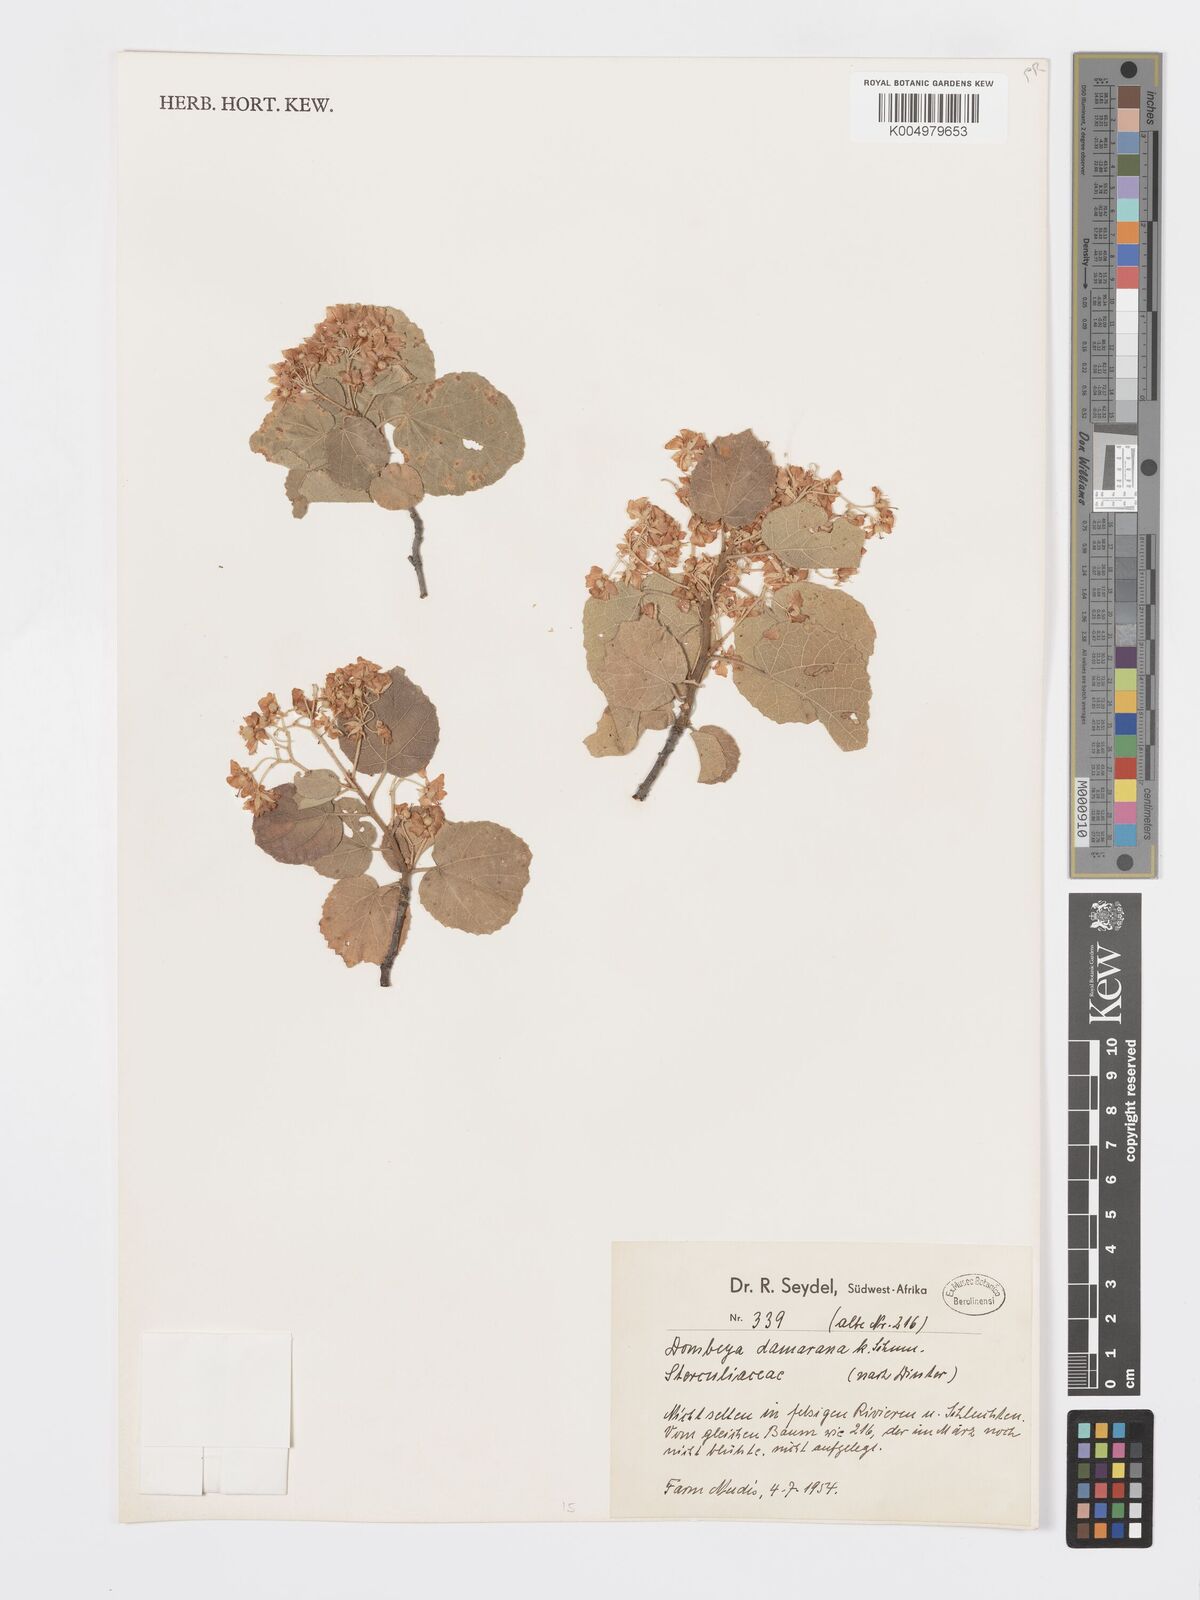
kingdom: Plantae
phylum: Tracheophyta
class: Magnoliopsida
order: Malvales
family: Malvaceae
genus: Dombeya
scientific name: Dombeya rotundifolia
